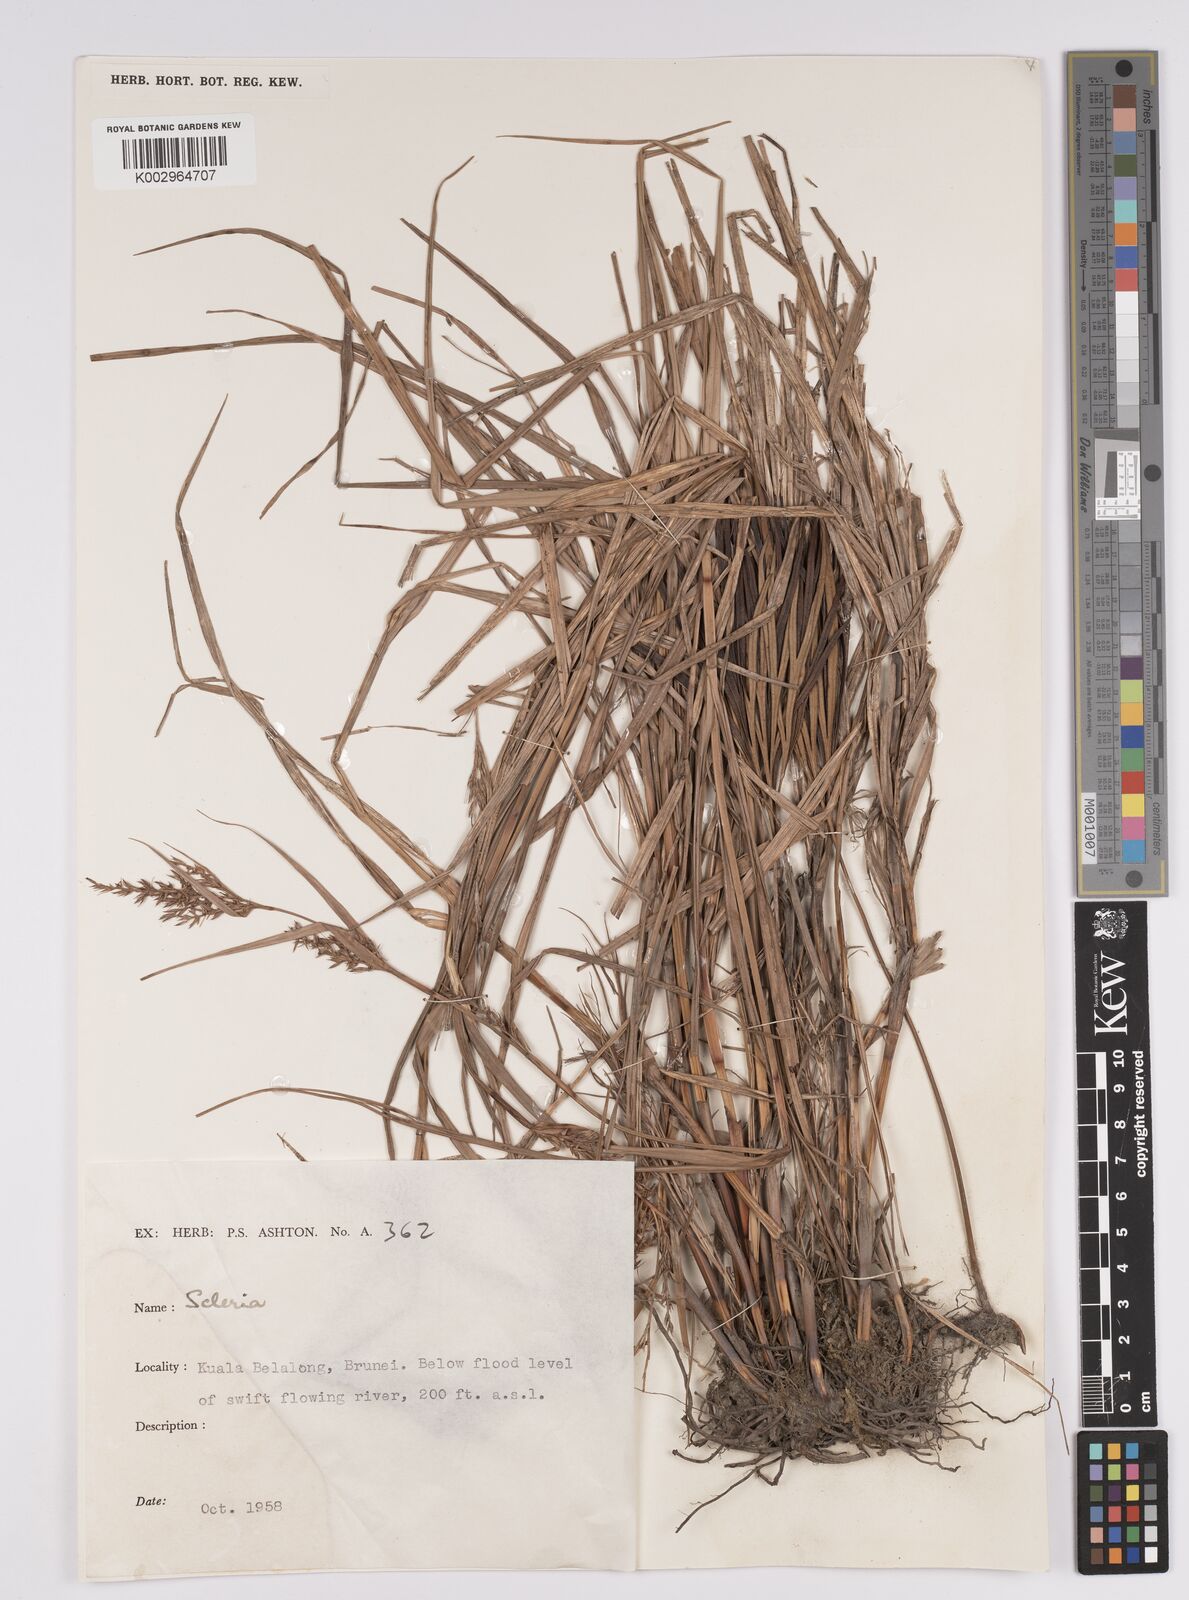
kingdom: Plantae
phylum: Tracheophyta
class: Liliopsida
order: Poales
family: Cyperaceae
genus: Scleria
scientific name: Scleria
